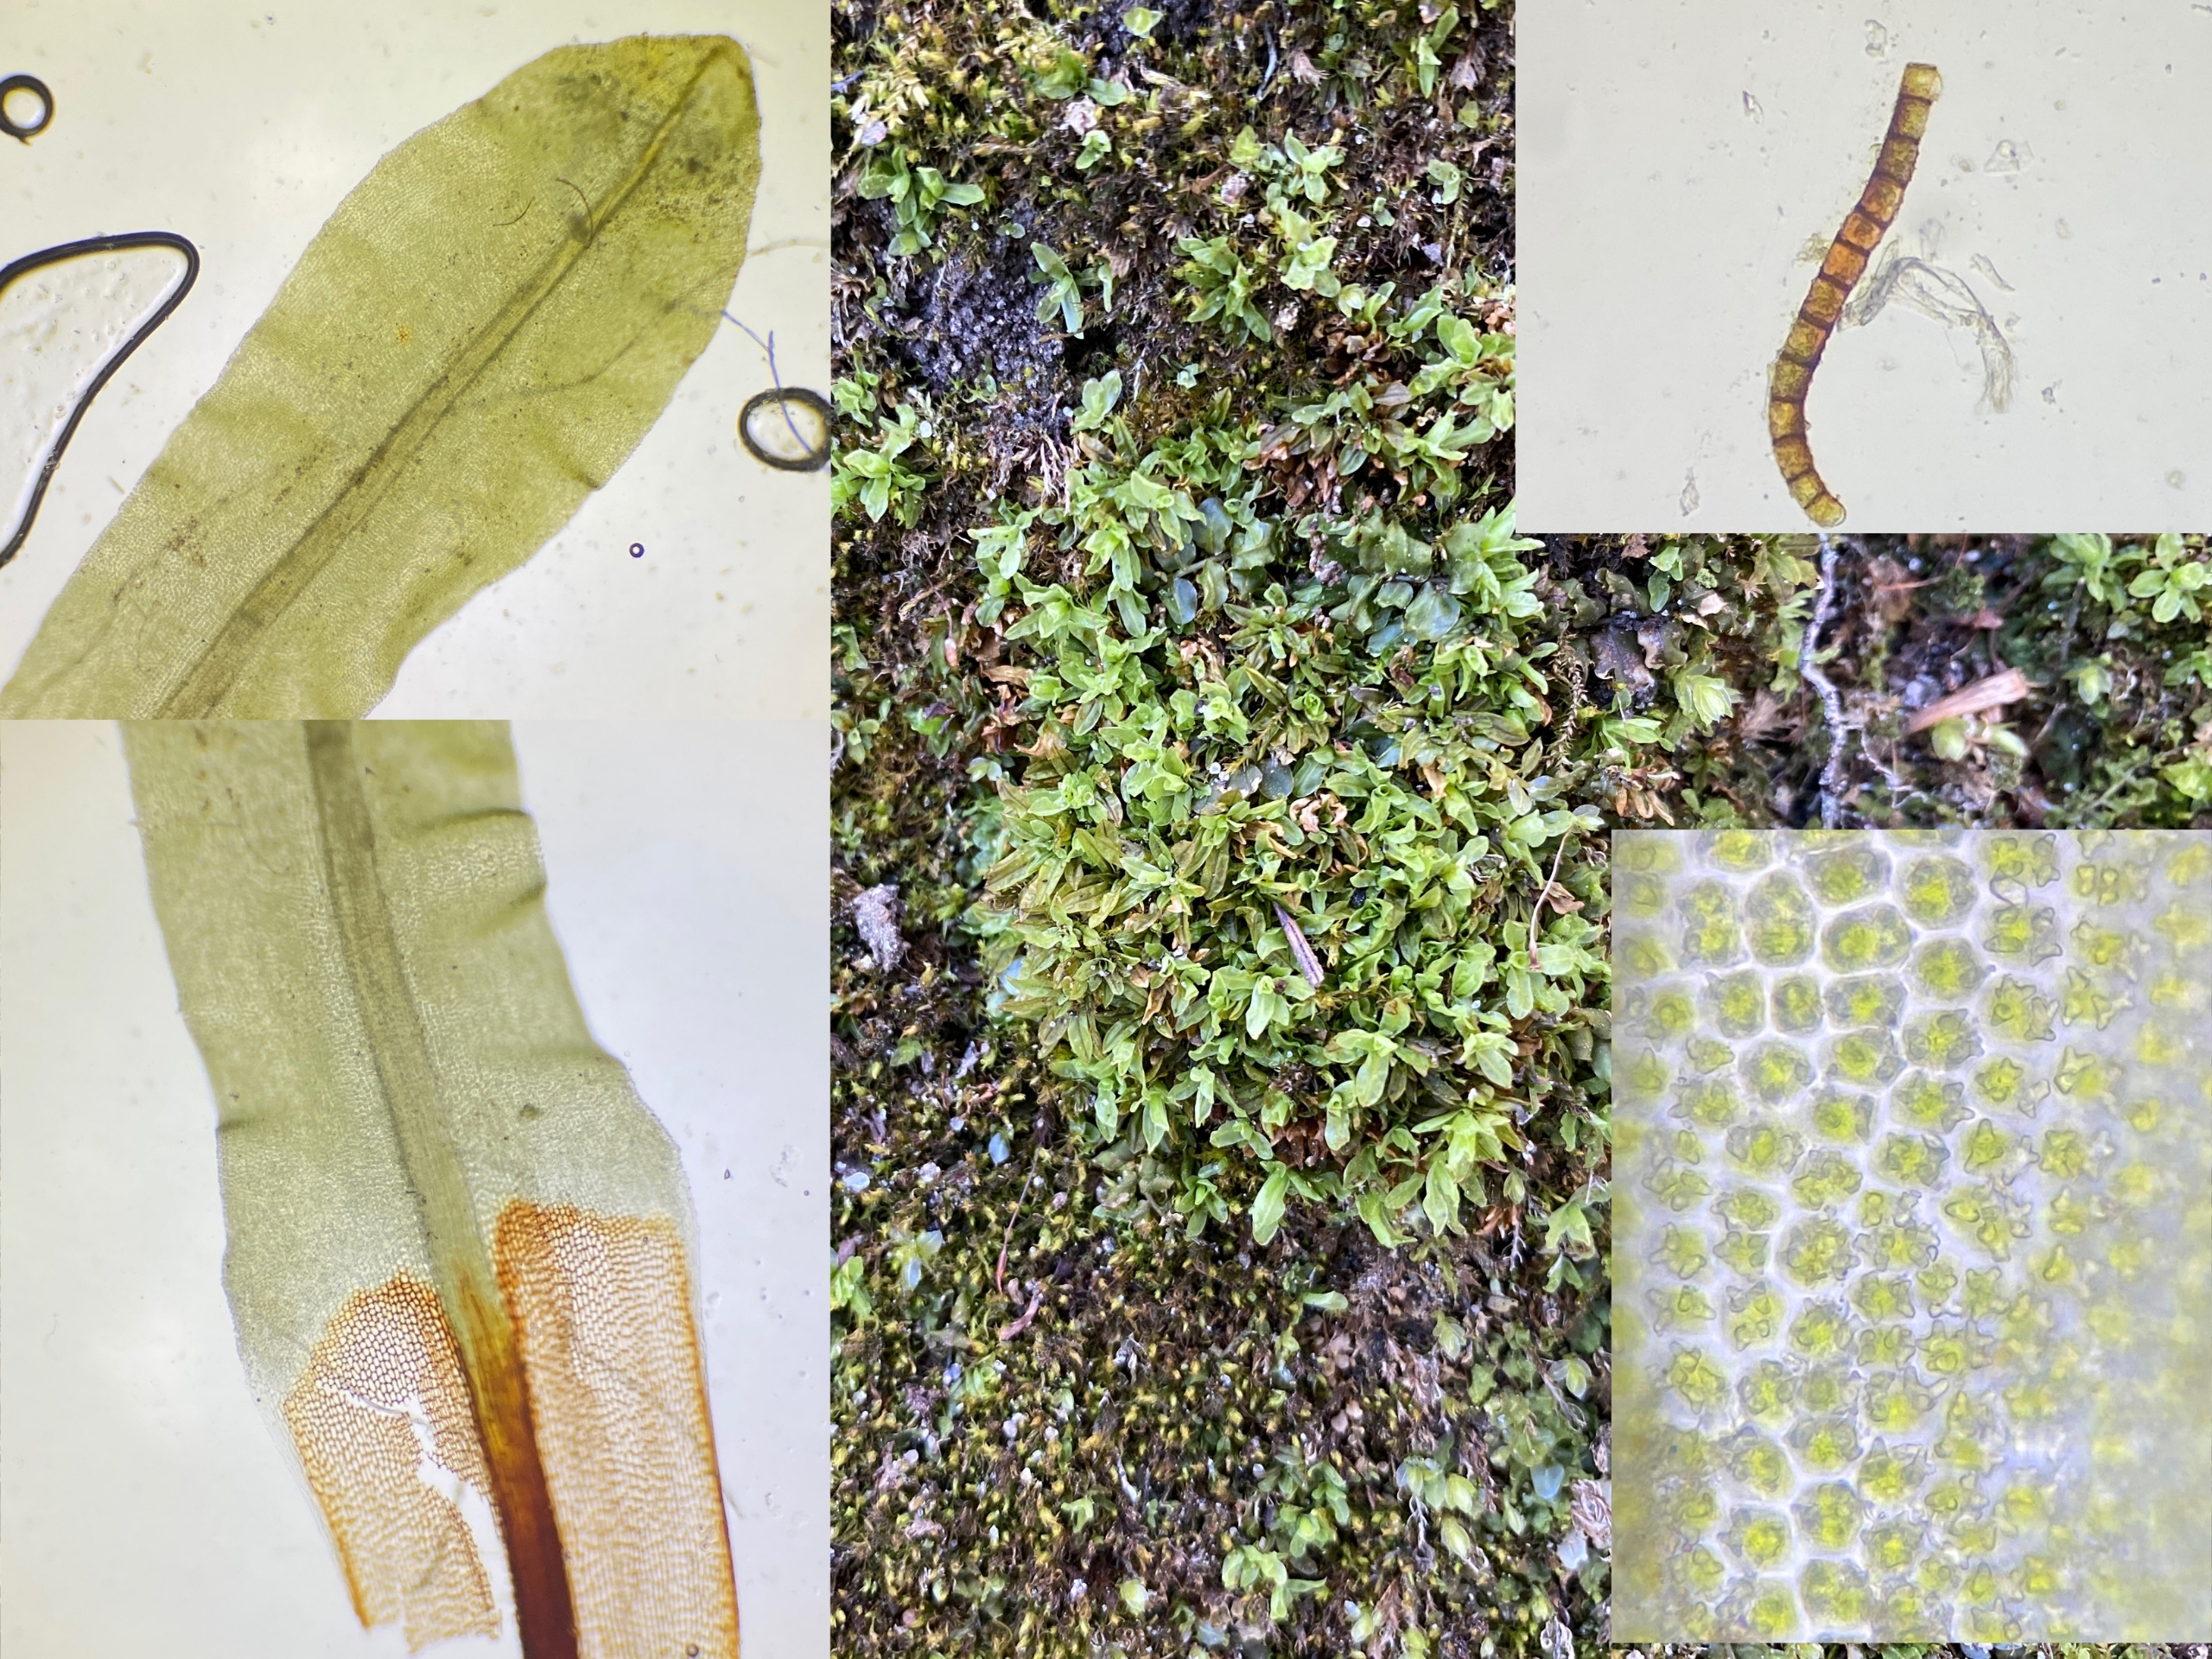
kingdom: Plantae
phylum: Bryophyta
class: Bryopsida
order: Encalyptales
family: Encalyptaceae
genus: Encalypta
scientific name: Encalypta streptocarpa
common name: Stor klokkehætte
